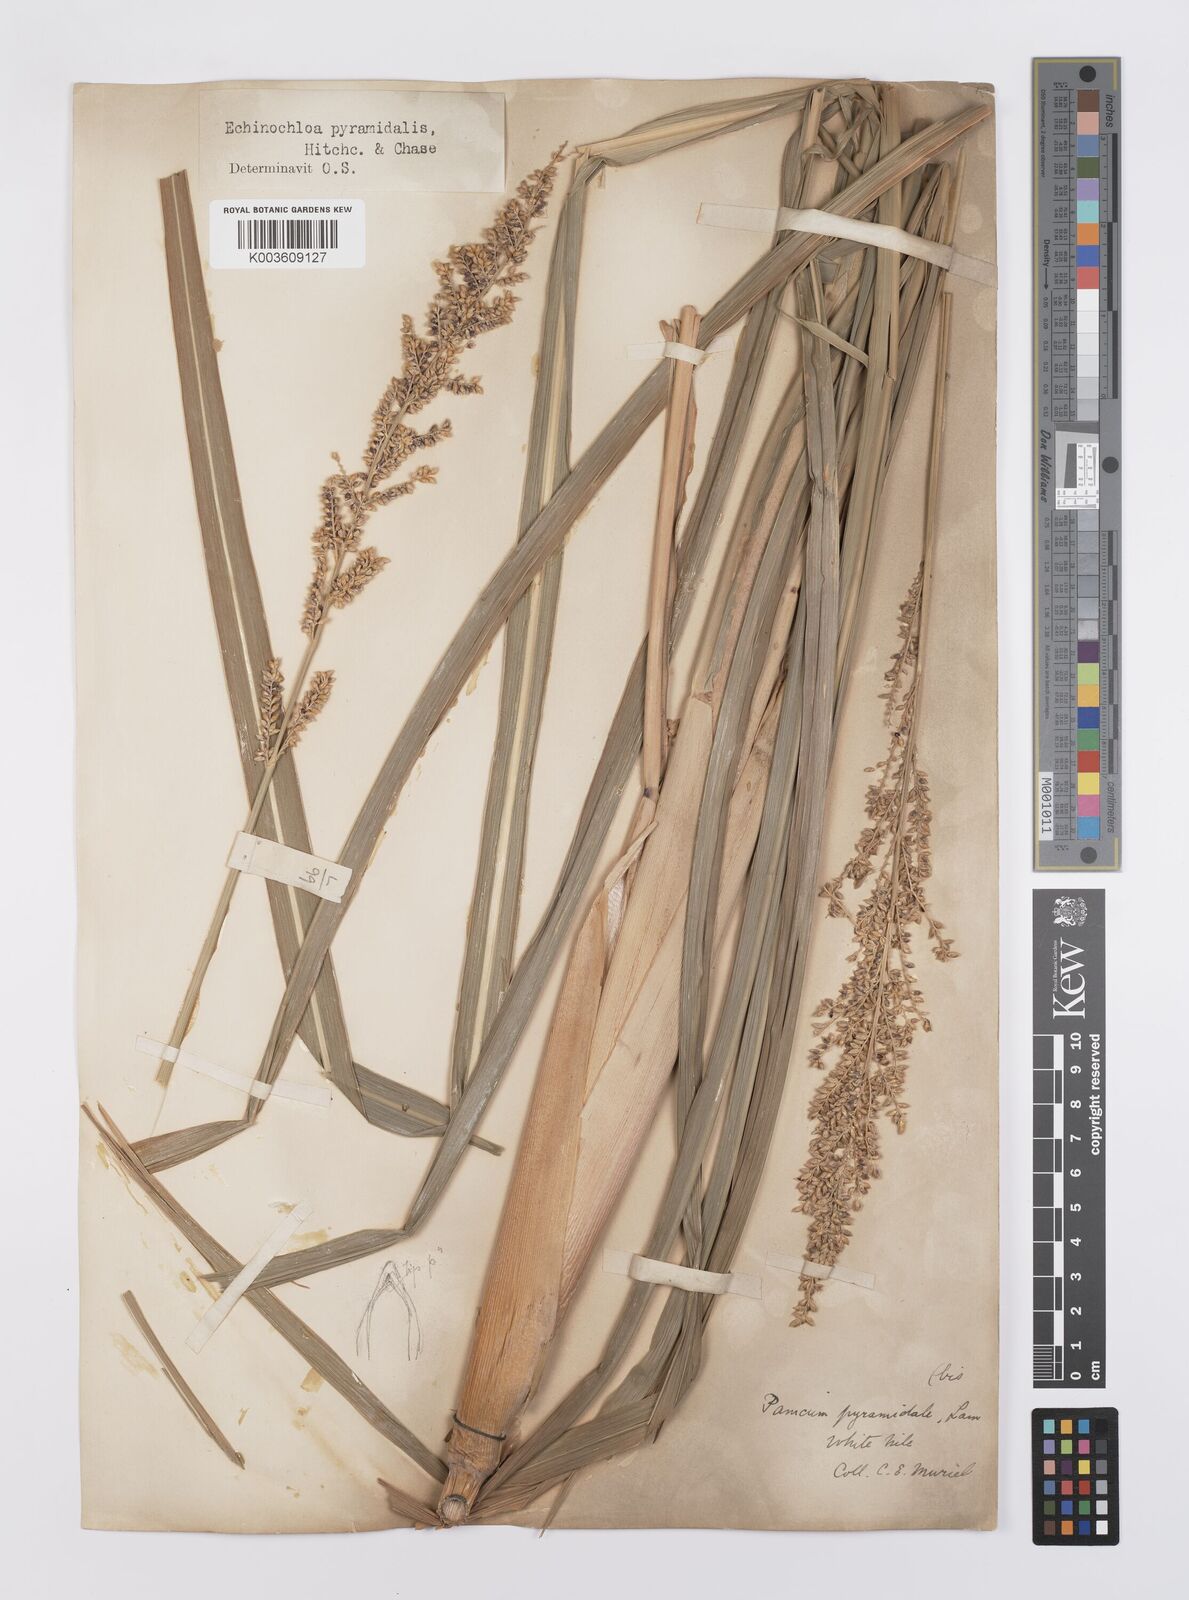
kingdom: Plantae
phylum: Tracheophyta
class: Liliopsida
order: Poales
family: Poaceae
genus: Echinochloa
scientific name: Echinochloa pyramidalis
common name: Antelope grass
